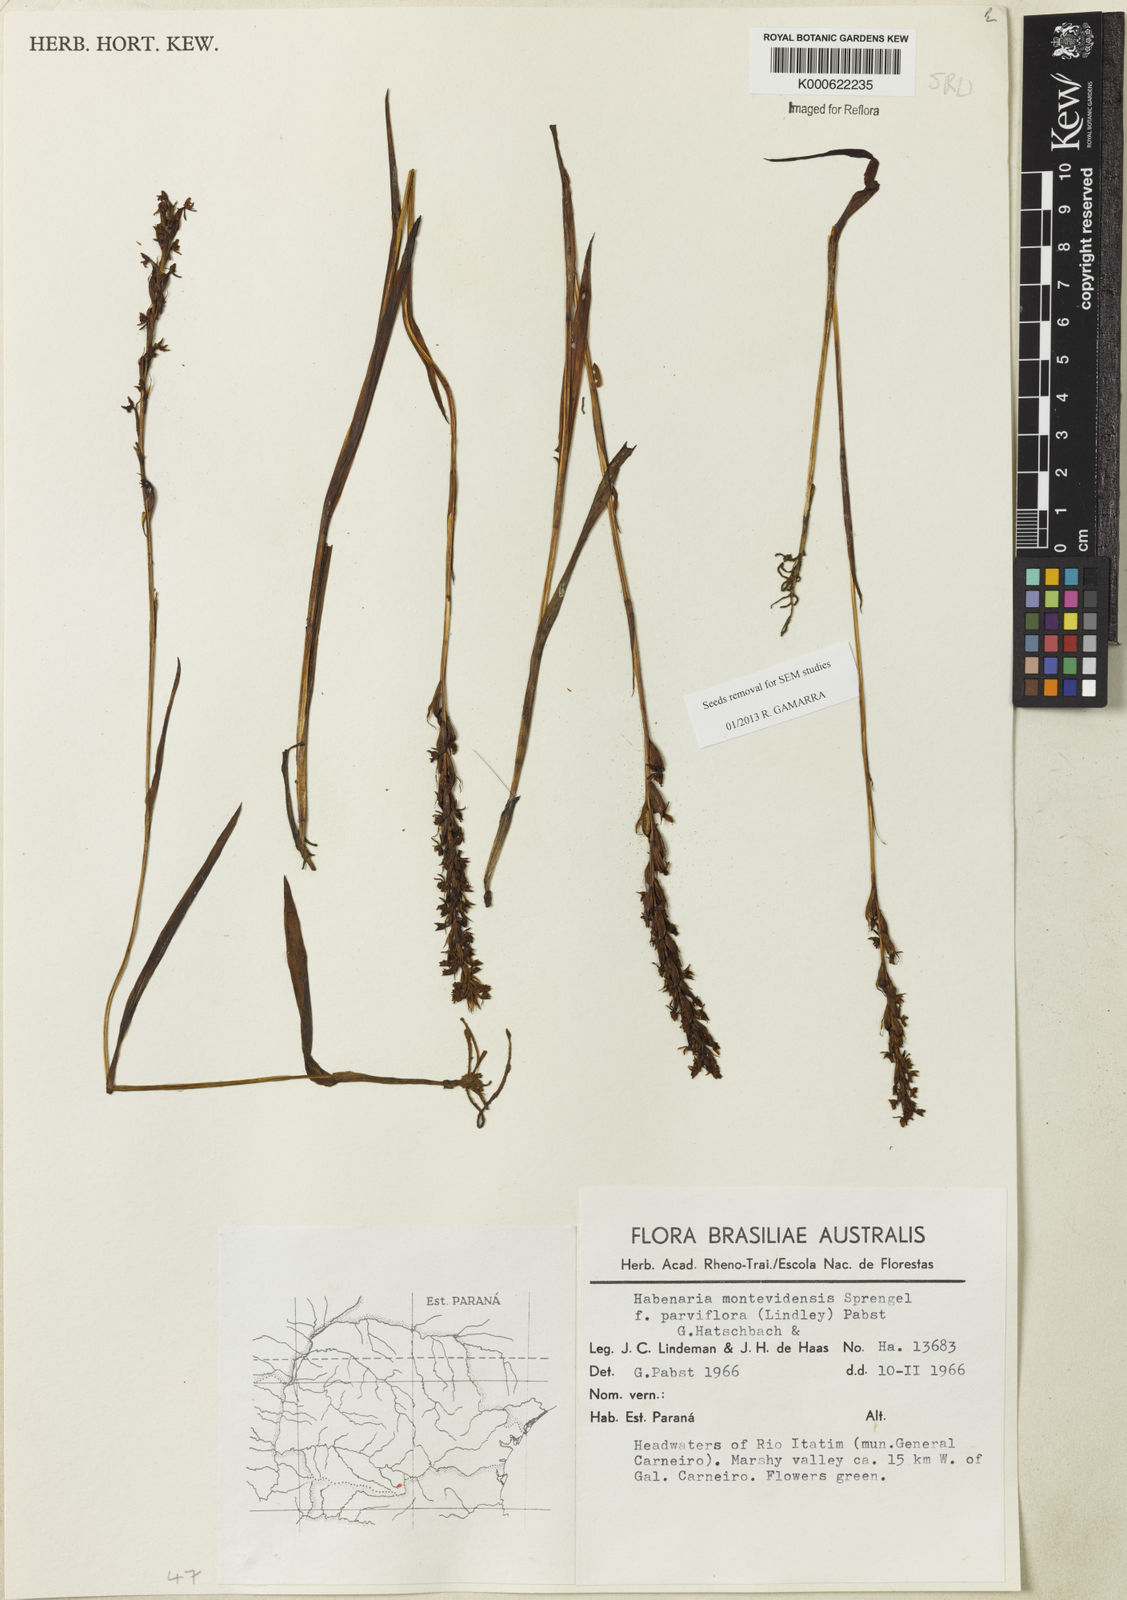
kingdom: Plantae
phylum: Tracheophyta
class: Liliopsida
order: Asparagales
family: Orchidaceae
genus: Habenaria
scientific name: Habenaria parviflora
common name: Small flowered habenaria
